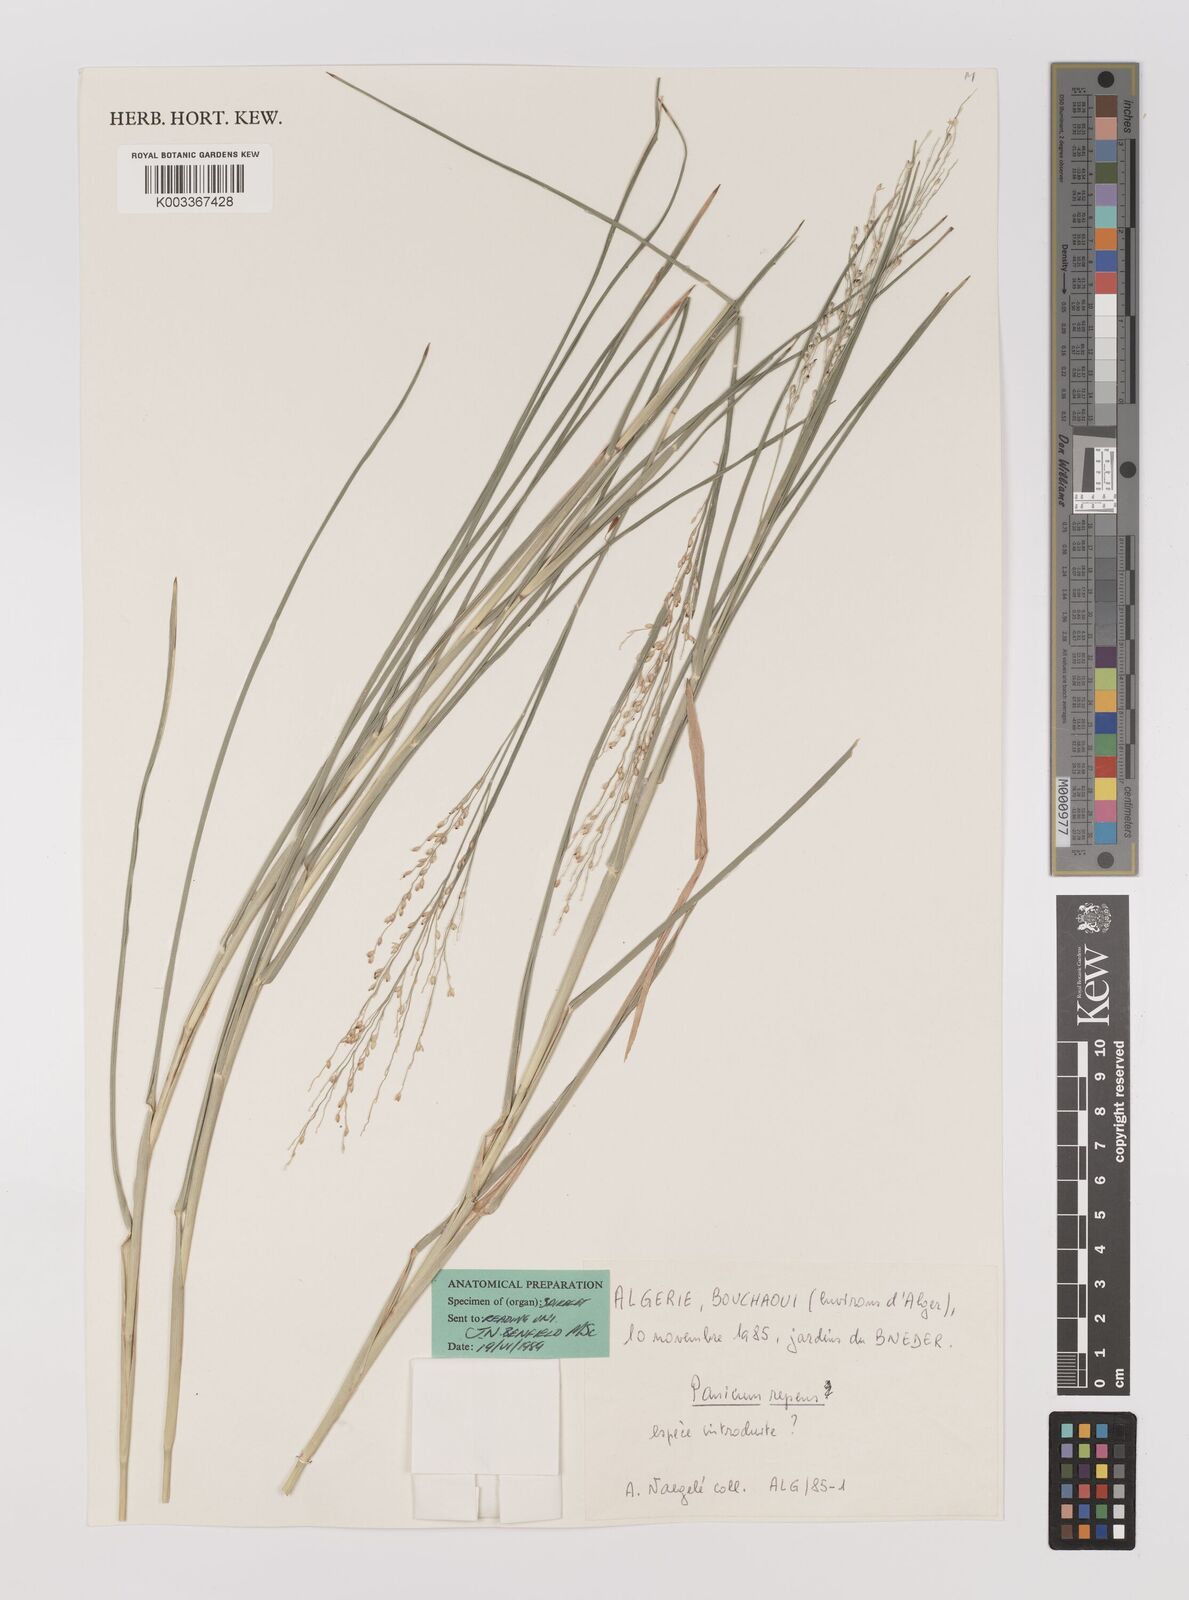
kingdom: Plantae
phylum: Tracheophyta
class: Liliopsida
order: Poales
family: Poaceae
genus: Panicum
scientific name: Panicum repens
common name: Torpedo grass
